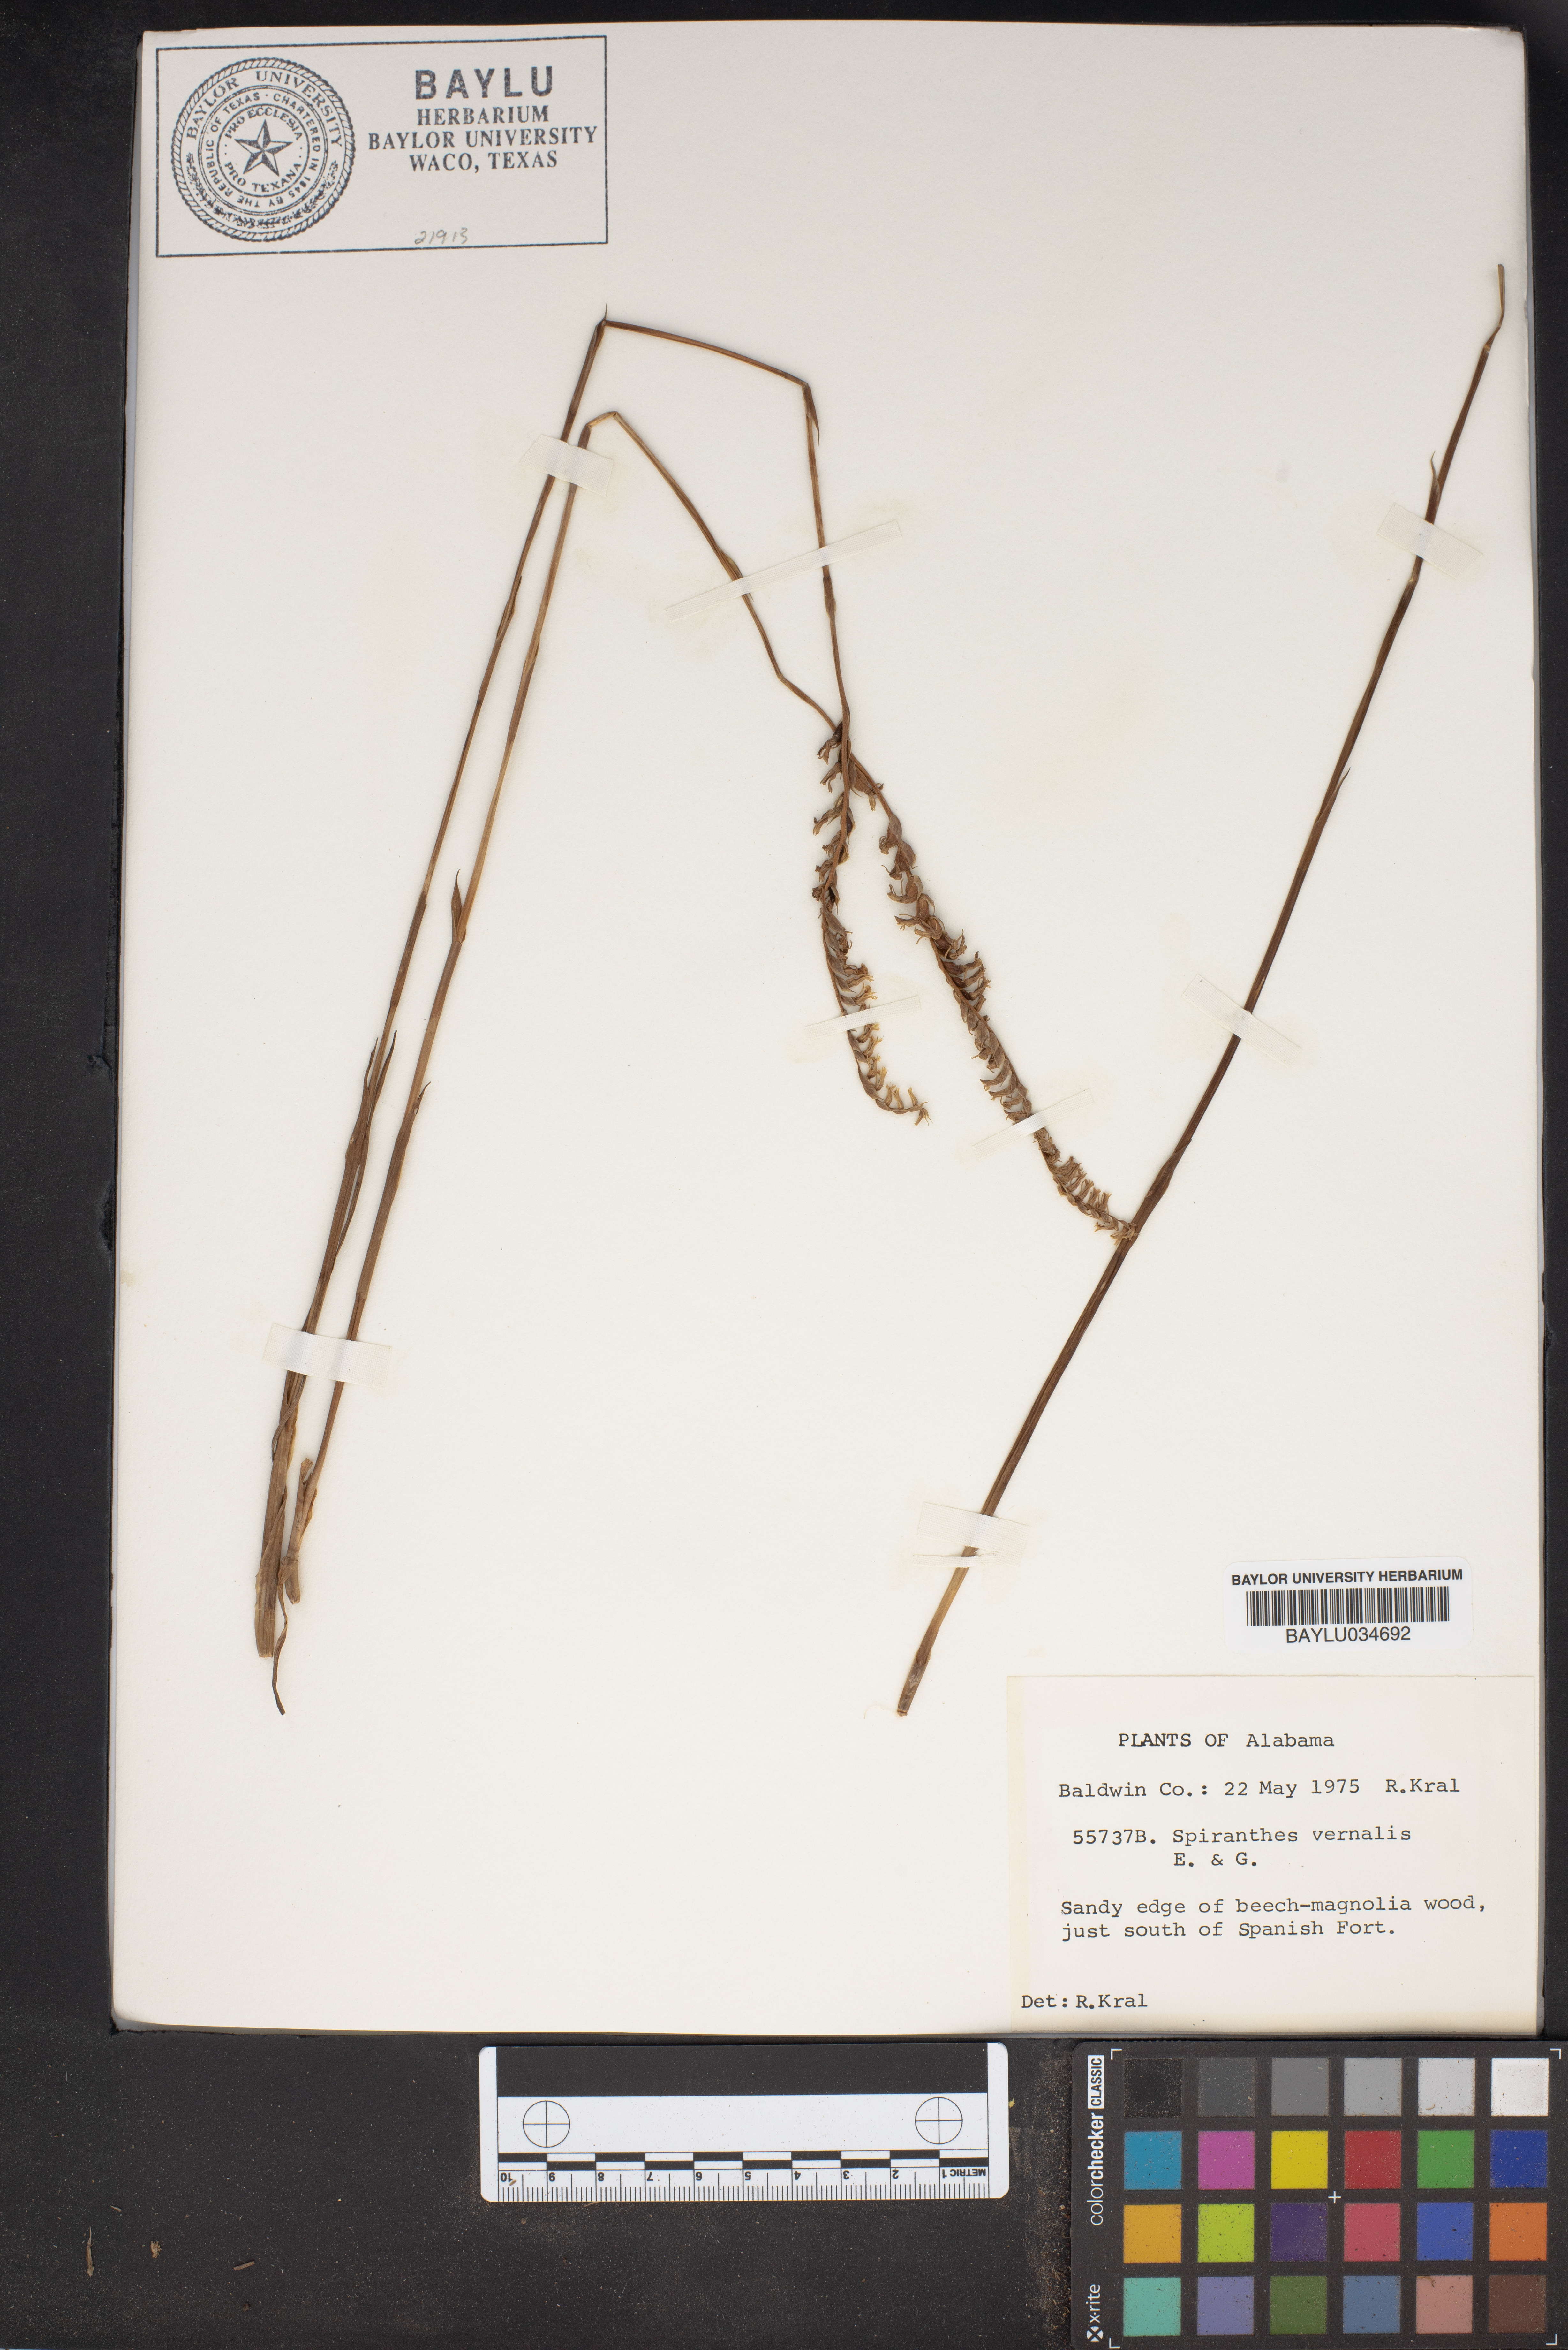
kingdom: Plantae
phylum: Tracheophyta
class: Liliopsida
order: Asparagales
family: Orchidaceae
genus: Spiranthes
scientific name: Spiranthes vernalis
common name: Spring ladies'-tresses
